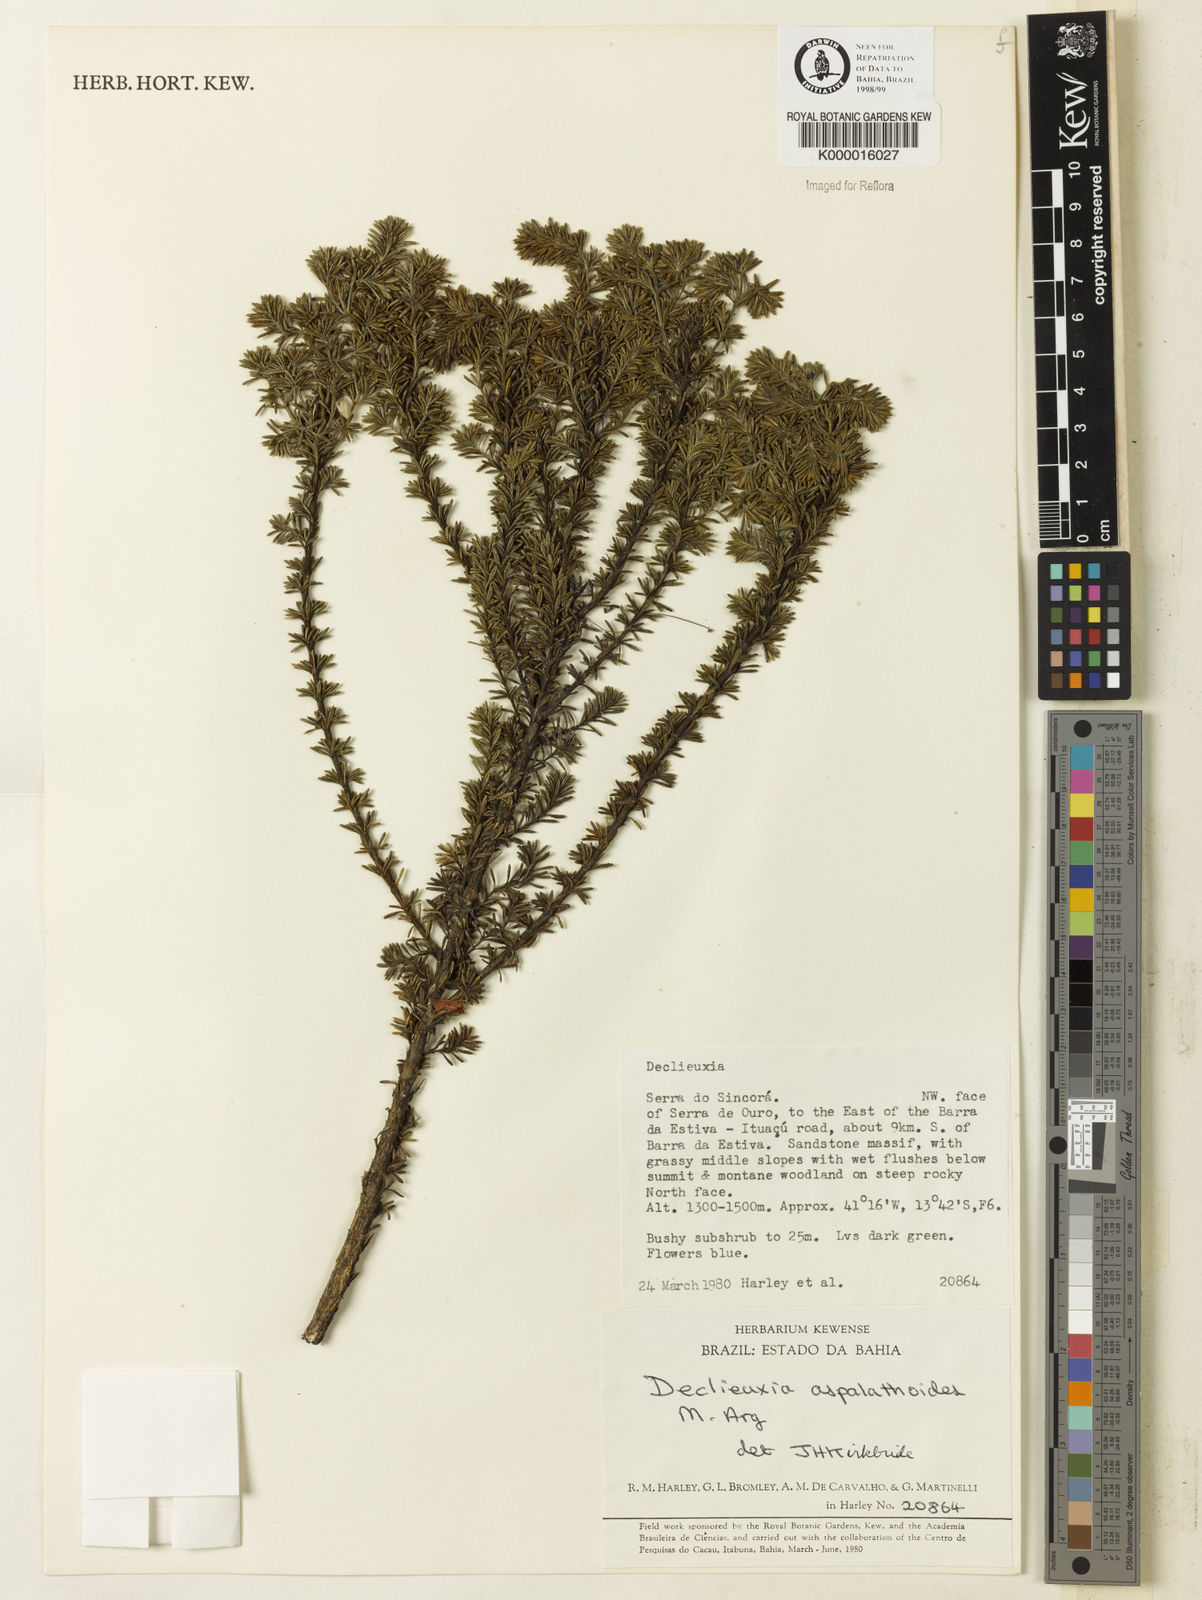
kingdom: Plantae
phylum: Tracheophyta
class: Magnoliopsida
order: Gentianales
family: Rubiaceae
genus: Declieuxia
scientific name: Declieuxia aspalathoides
